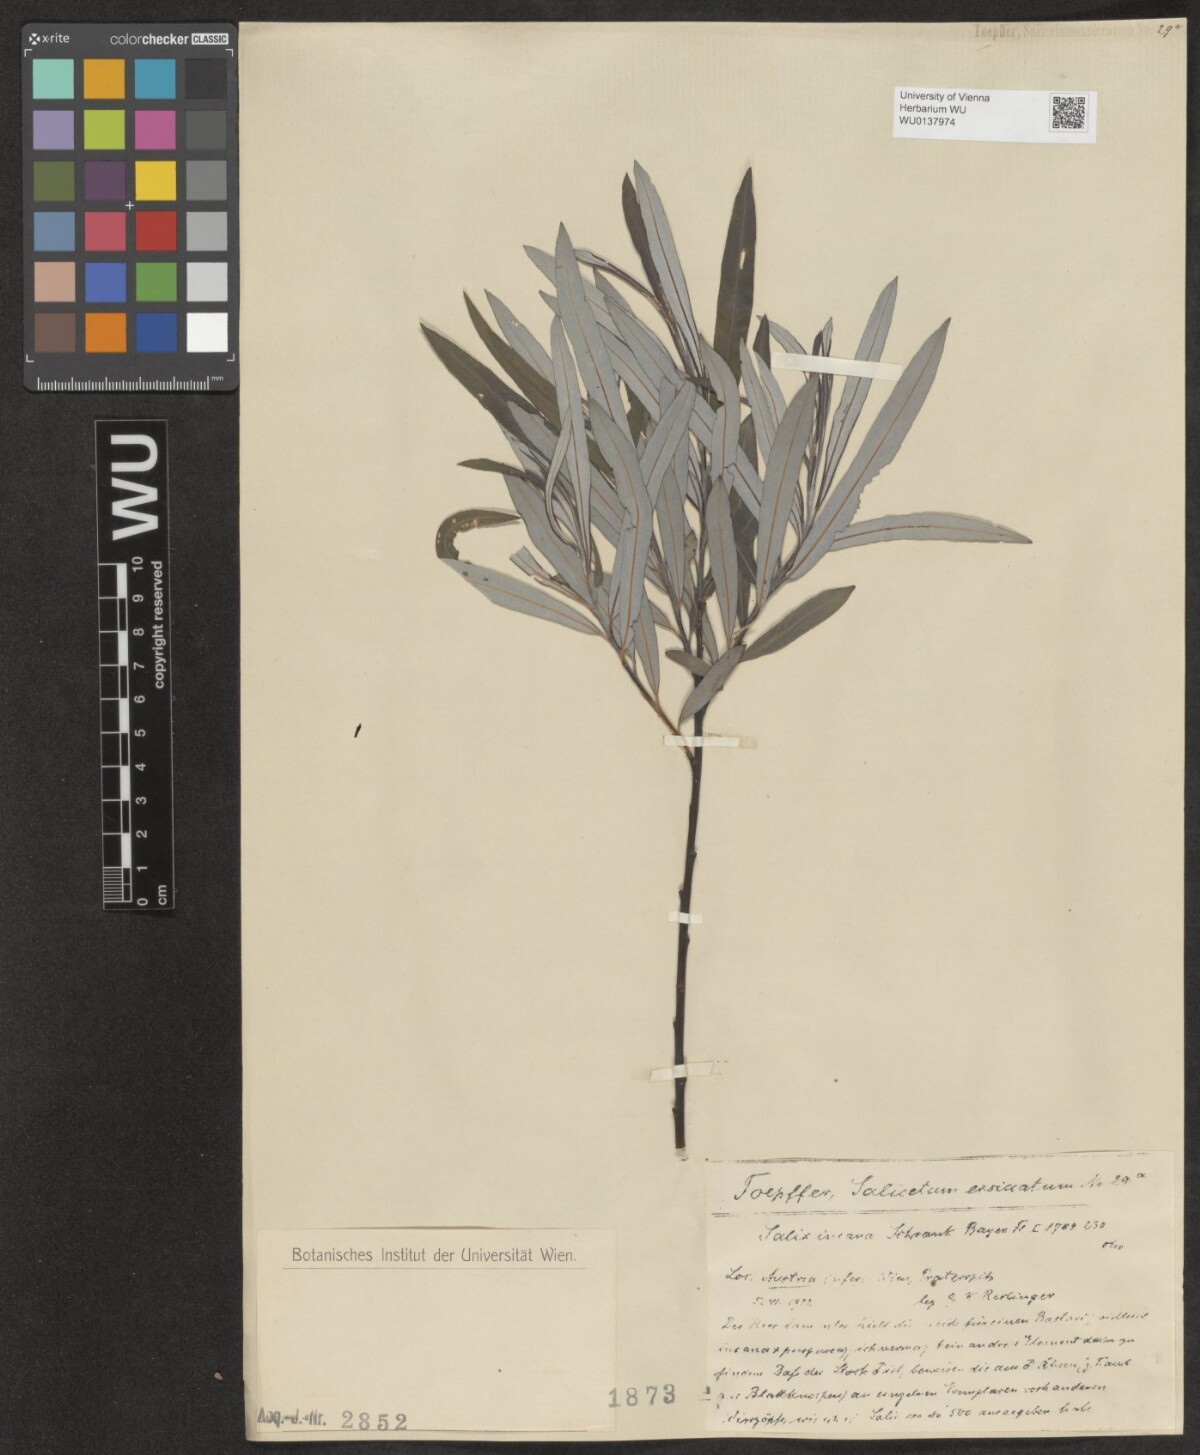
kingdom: Plantae
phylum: Tracheophyta
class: Magnoliopsida
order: Malpighiales
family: Salicaceae
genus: Salix
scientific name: Salix eleagnos
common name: Elaeagnus willow
